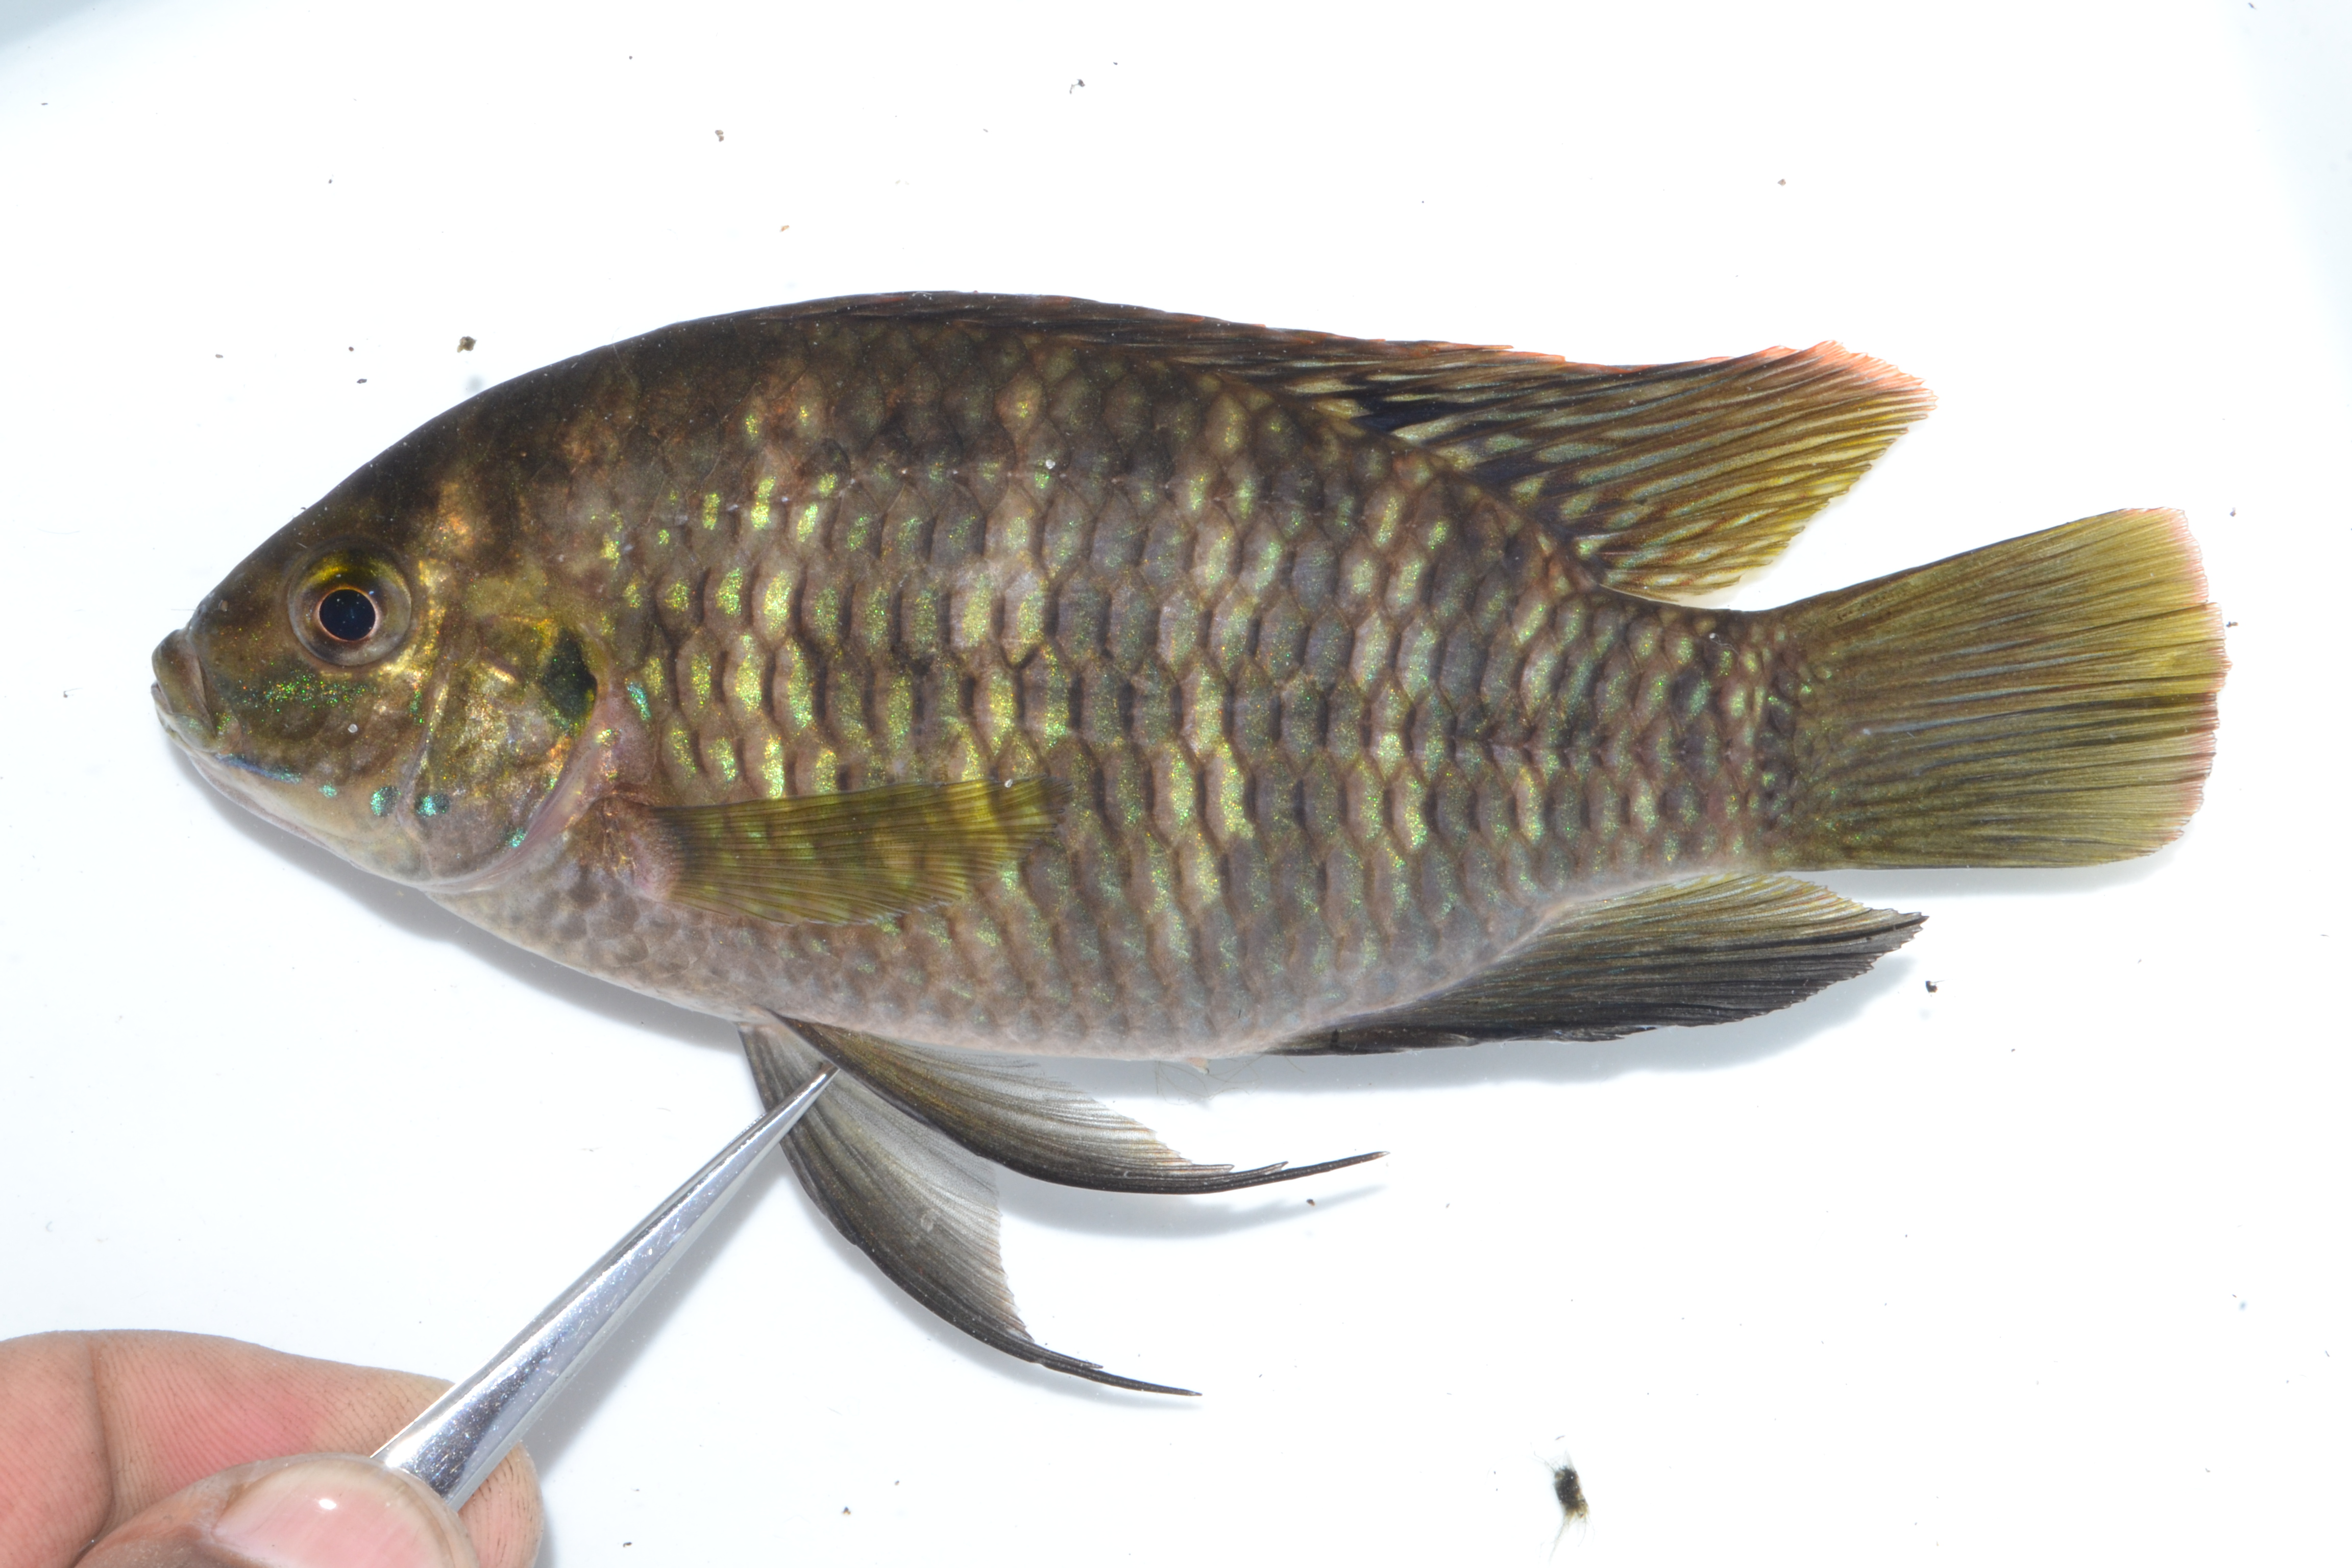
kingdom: Animalia
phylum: Chordata
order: Perciformes
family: Cichlidae
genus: Tilapia
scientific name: Tilapia sparrmanii
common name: Banded tilapia
